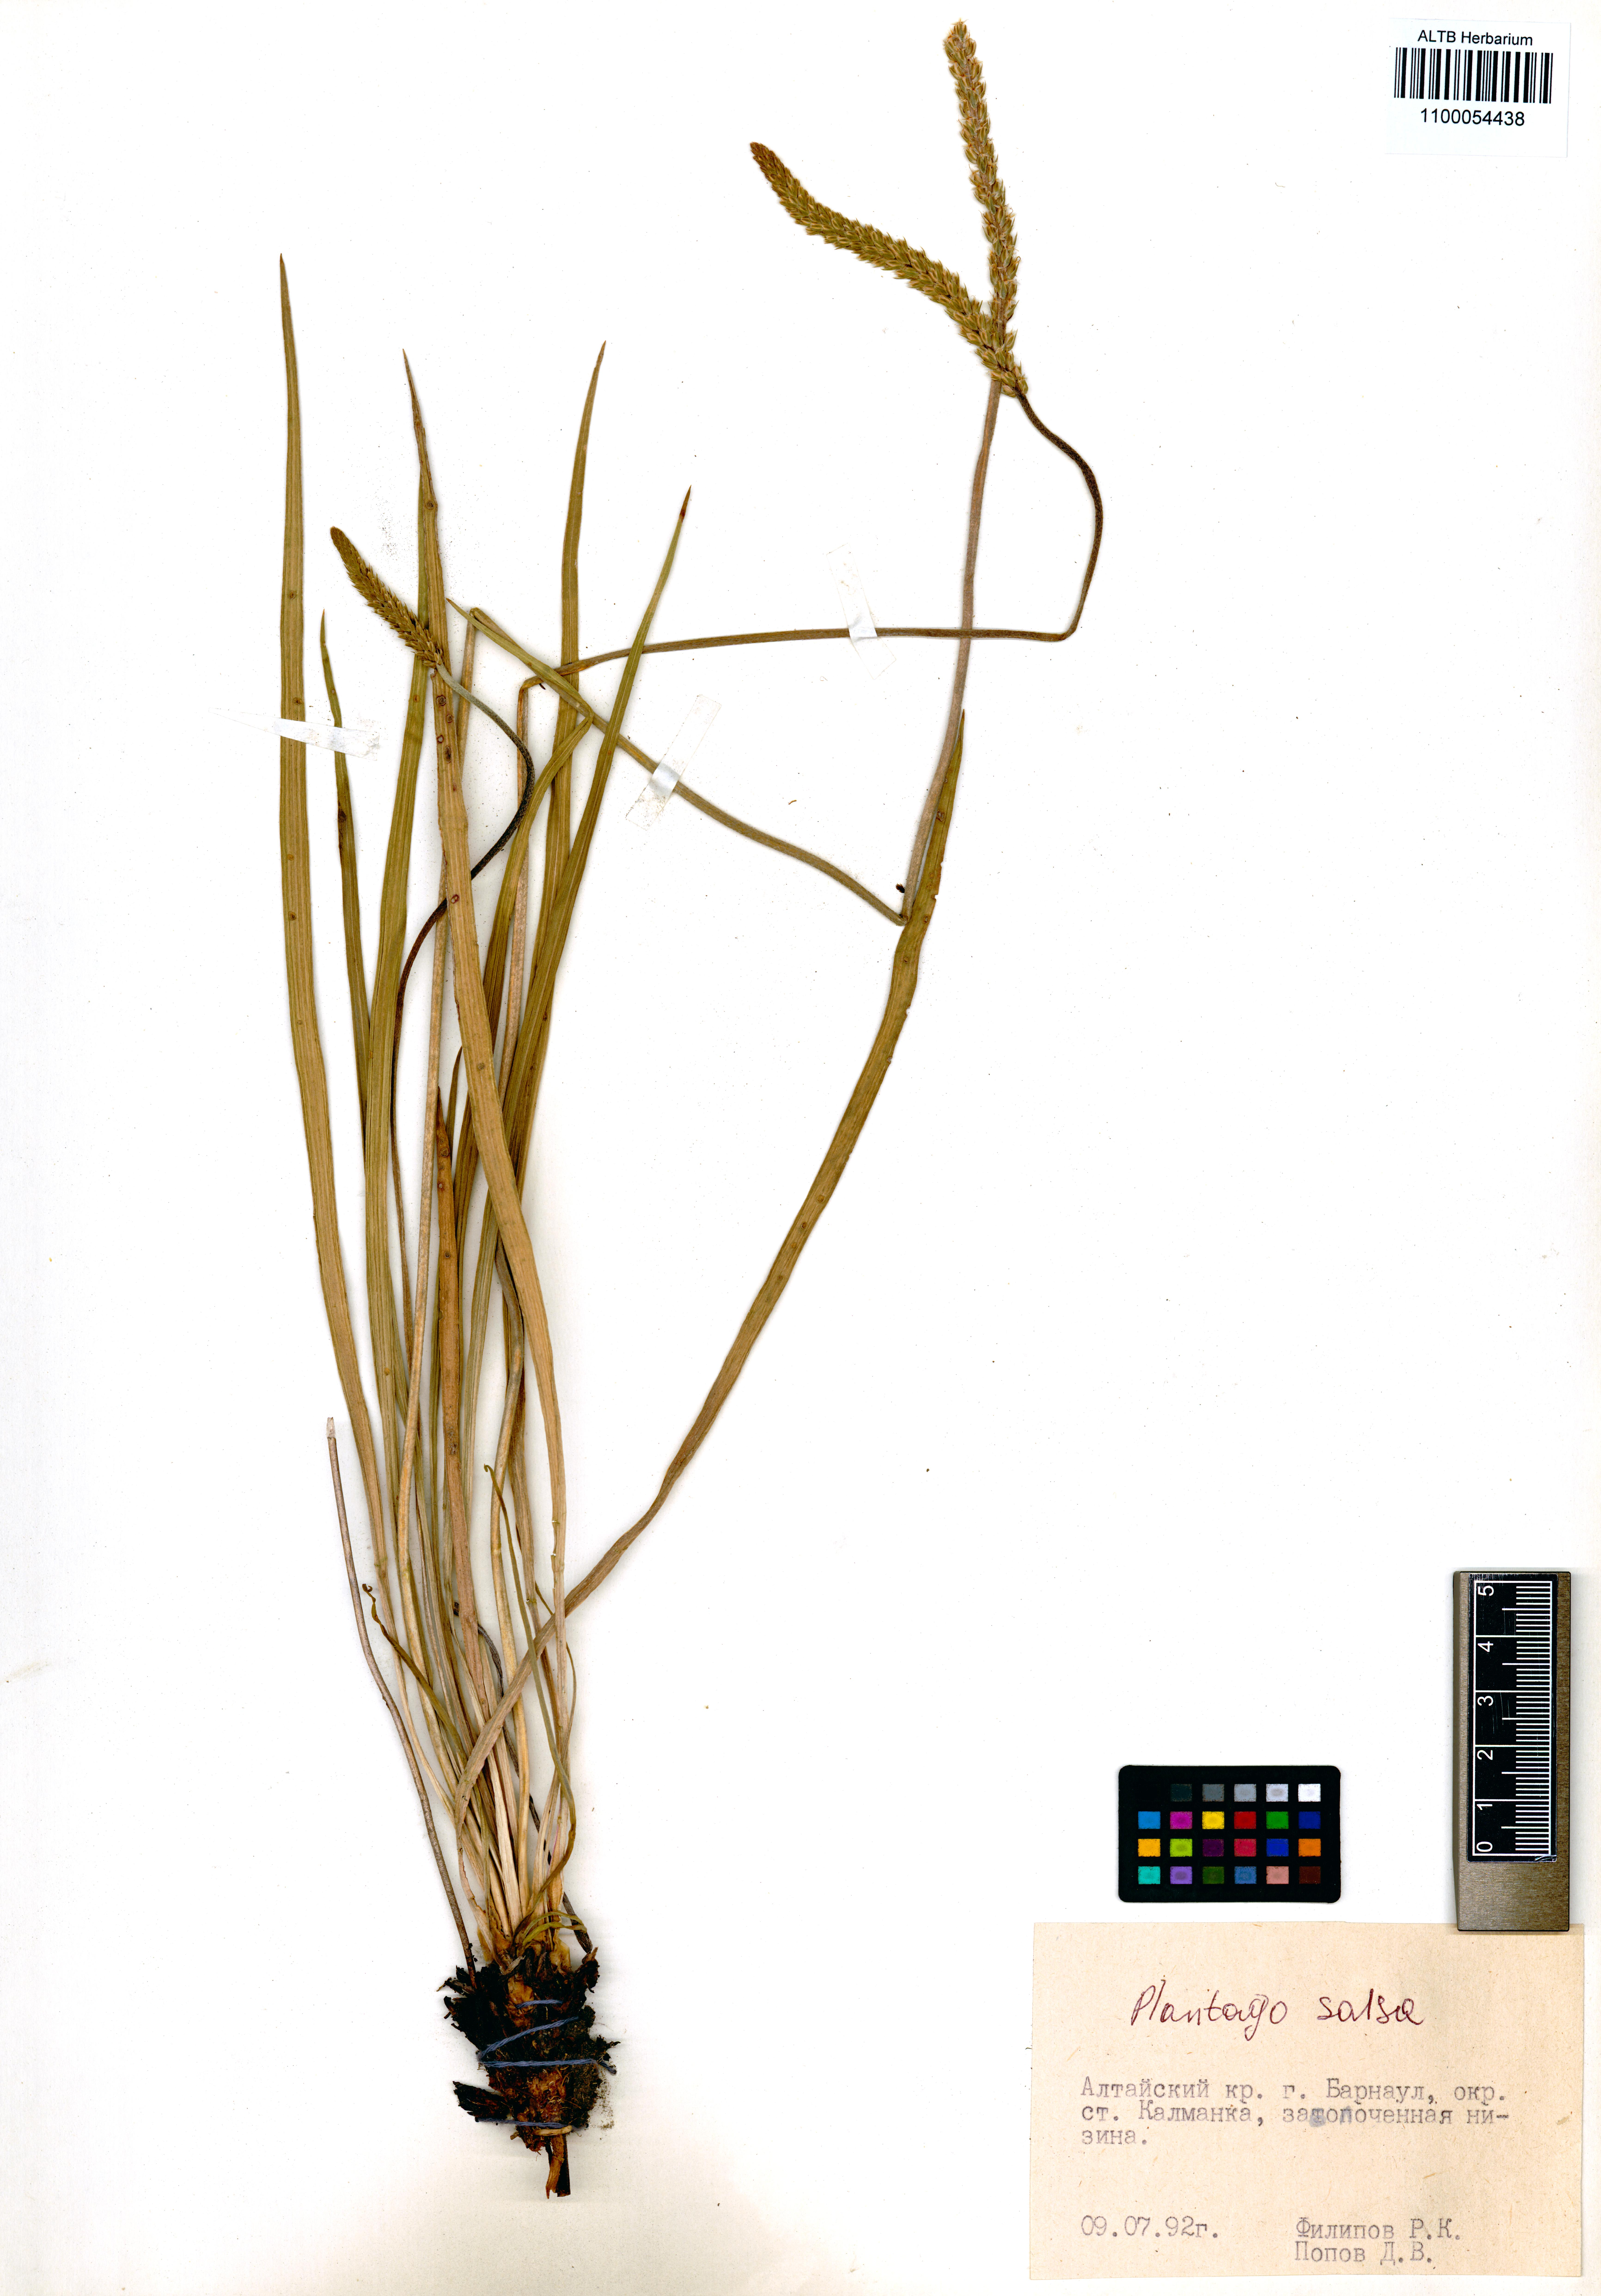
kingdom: Plantae
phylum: Tracheophyta
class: Magnoliopsida
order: Lamiales
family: Plantaginaceae
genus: Plantago
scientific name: Plantago salsa
